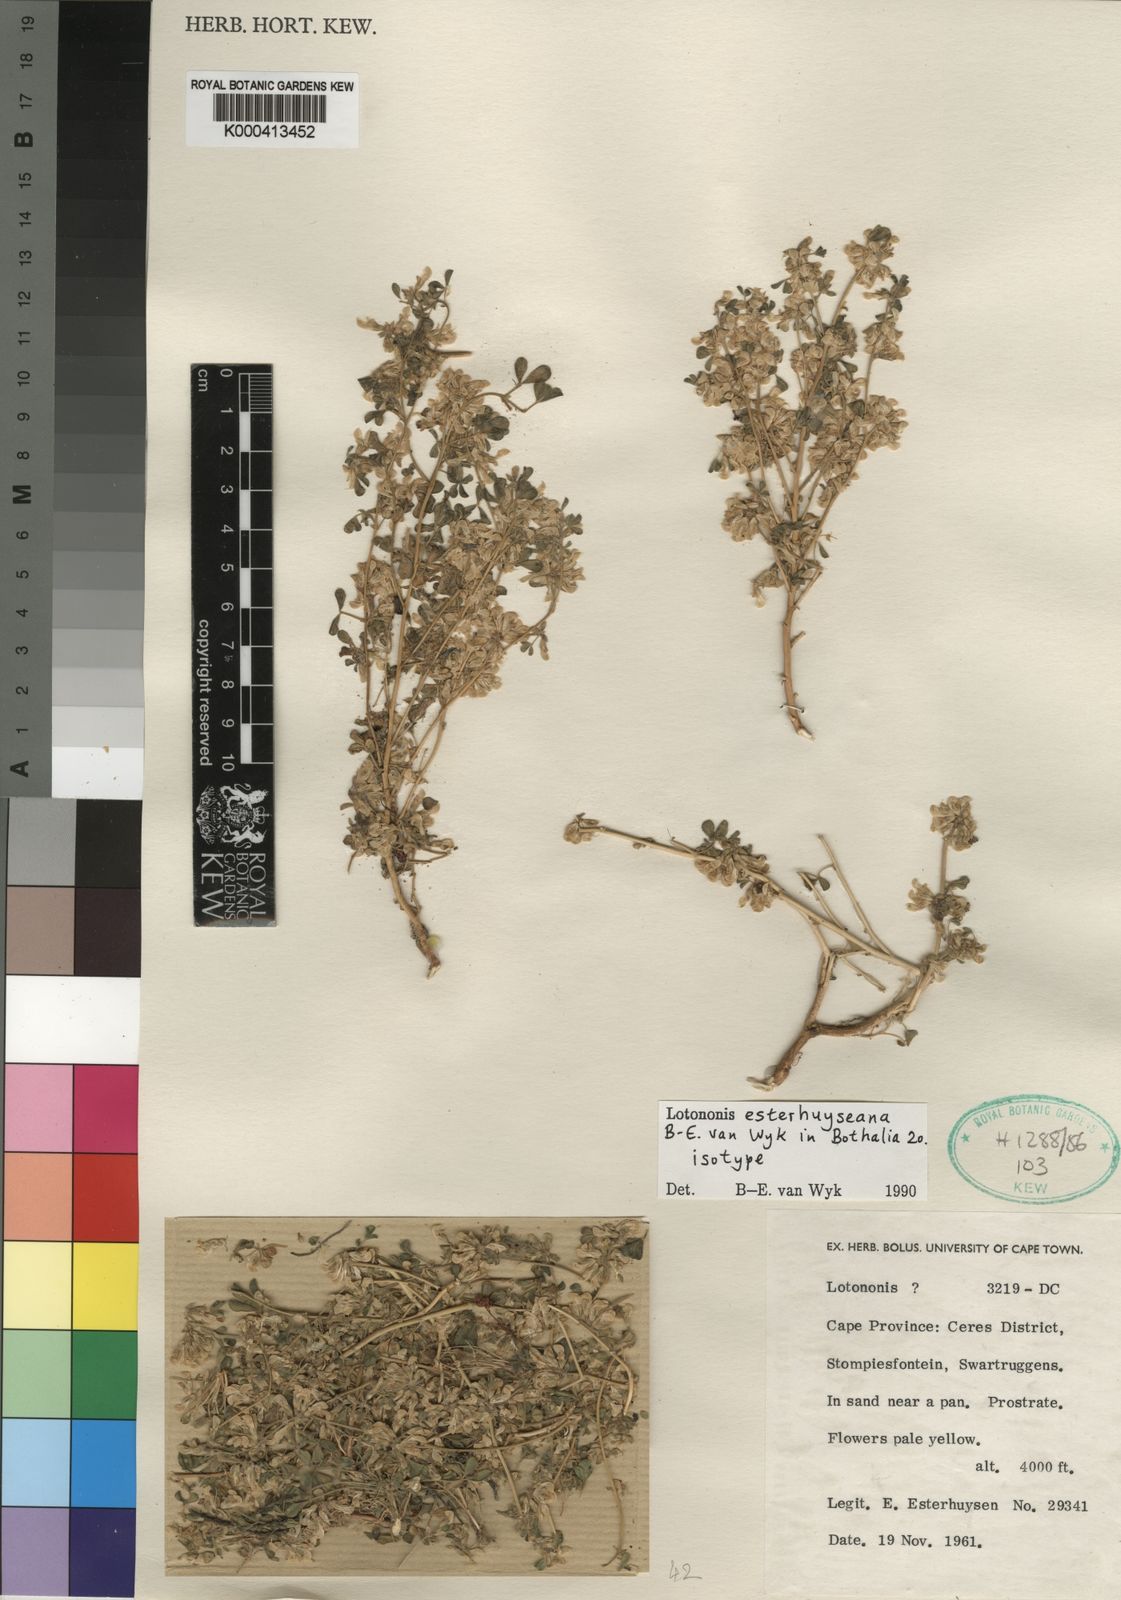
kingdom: Plantae
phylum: Tracheophyta
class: Magnoliopsida
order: Fabales
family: Fabaceae
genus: Leobordea
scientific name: Leobordea esterhuyseniana
